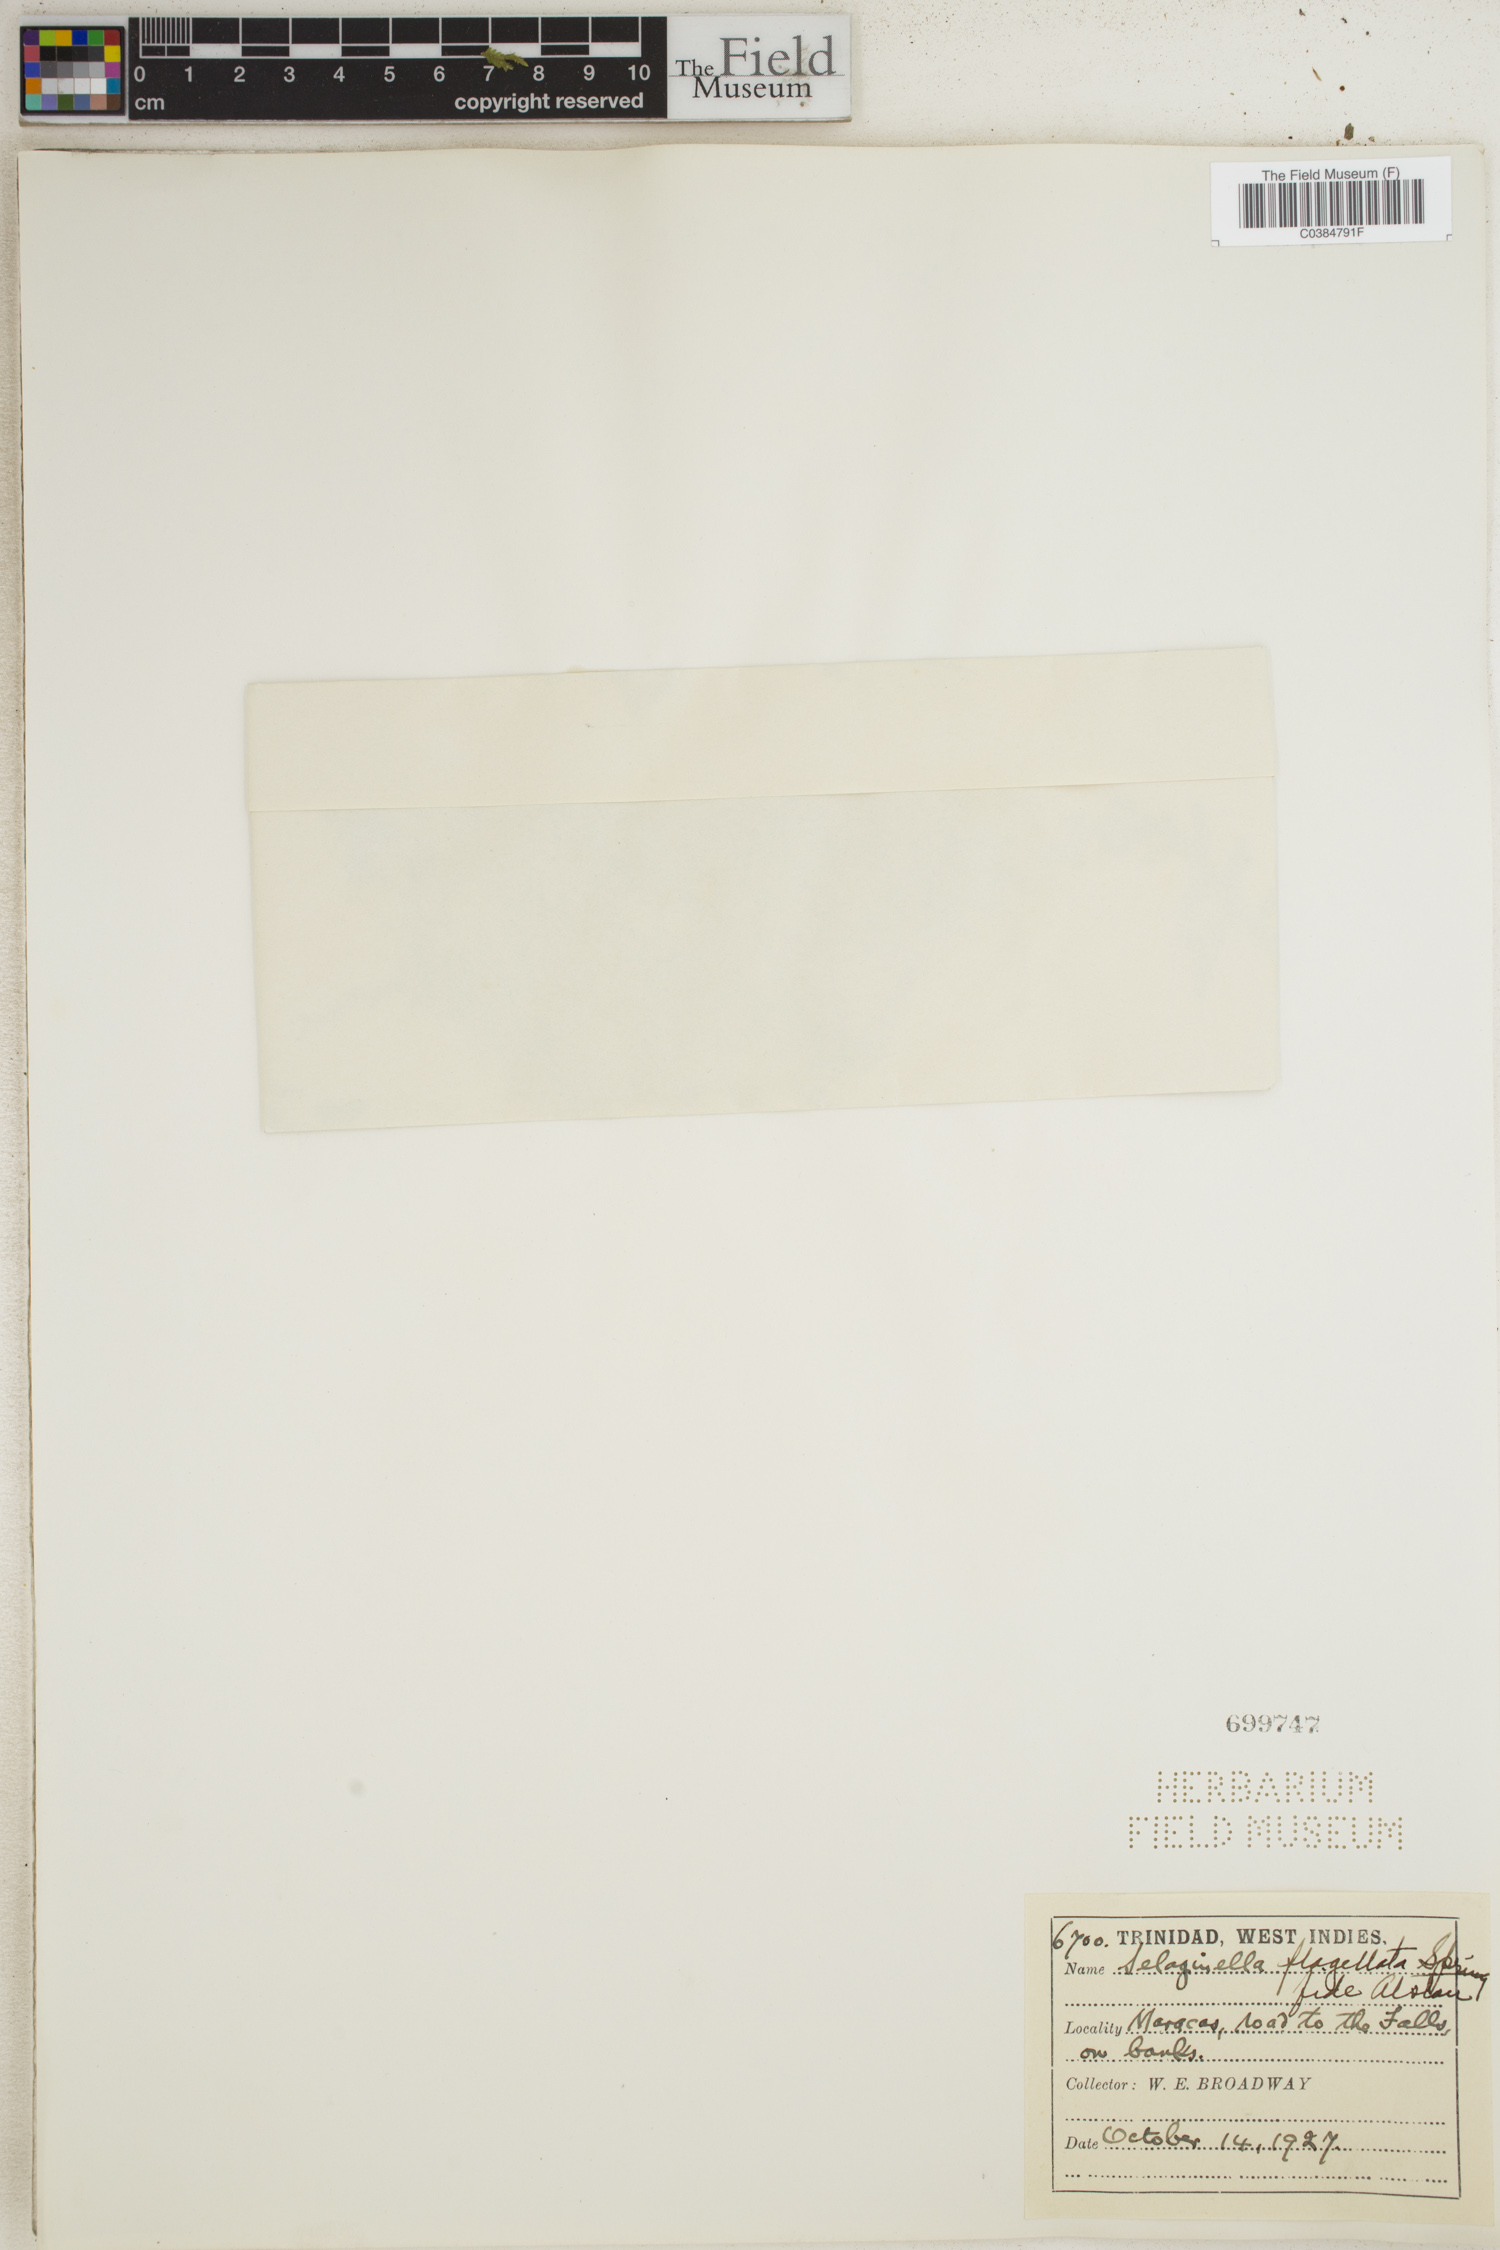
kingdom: Plantae
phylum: Tracheophyta
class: Lycopodiopsida
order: Selaginellales
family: Selaginellaceae
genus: Selaginella
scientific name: Selaginella flabellata
